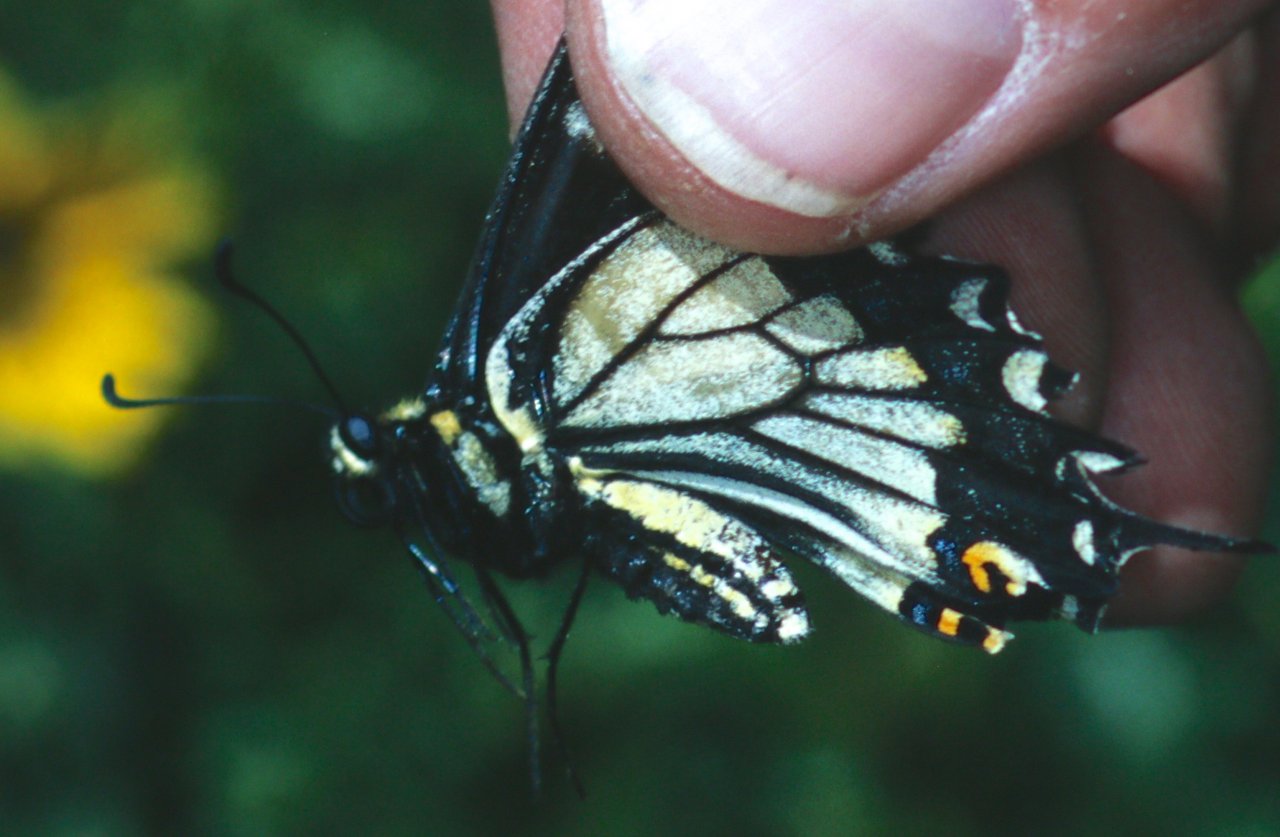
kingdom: Animalia
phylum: Arthropoda
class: Insecta
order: Lepidoptera
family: Papilionidae
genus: Papilio
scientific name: Papilio machaon
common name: Old World Swallowtail
